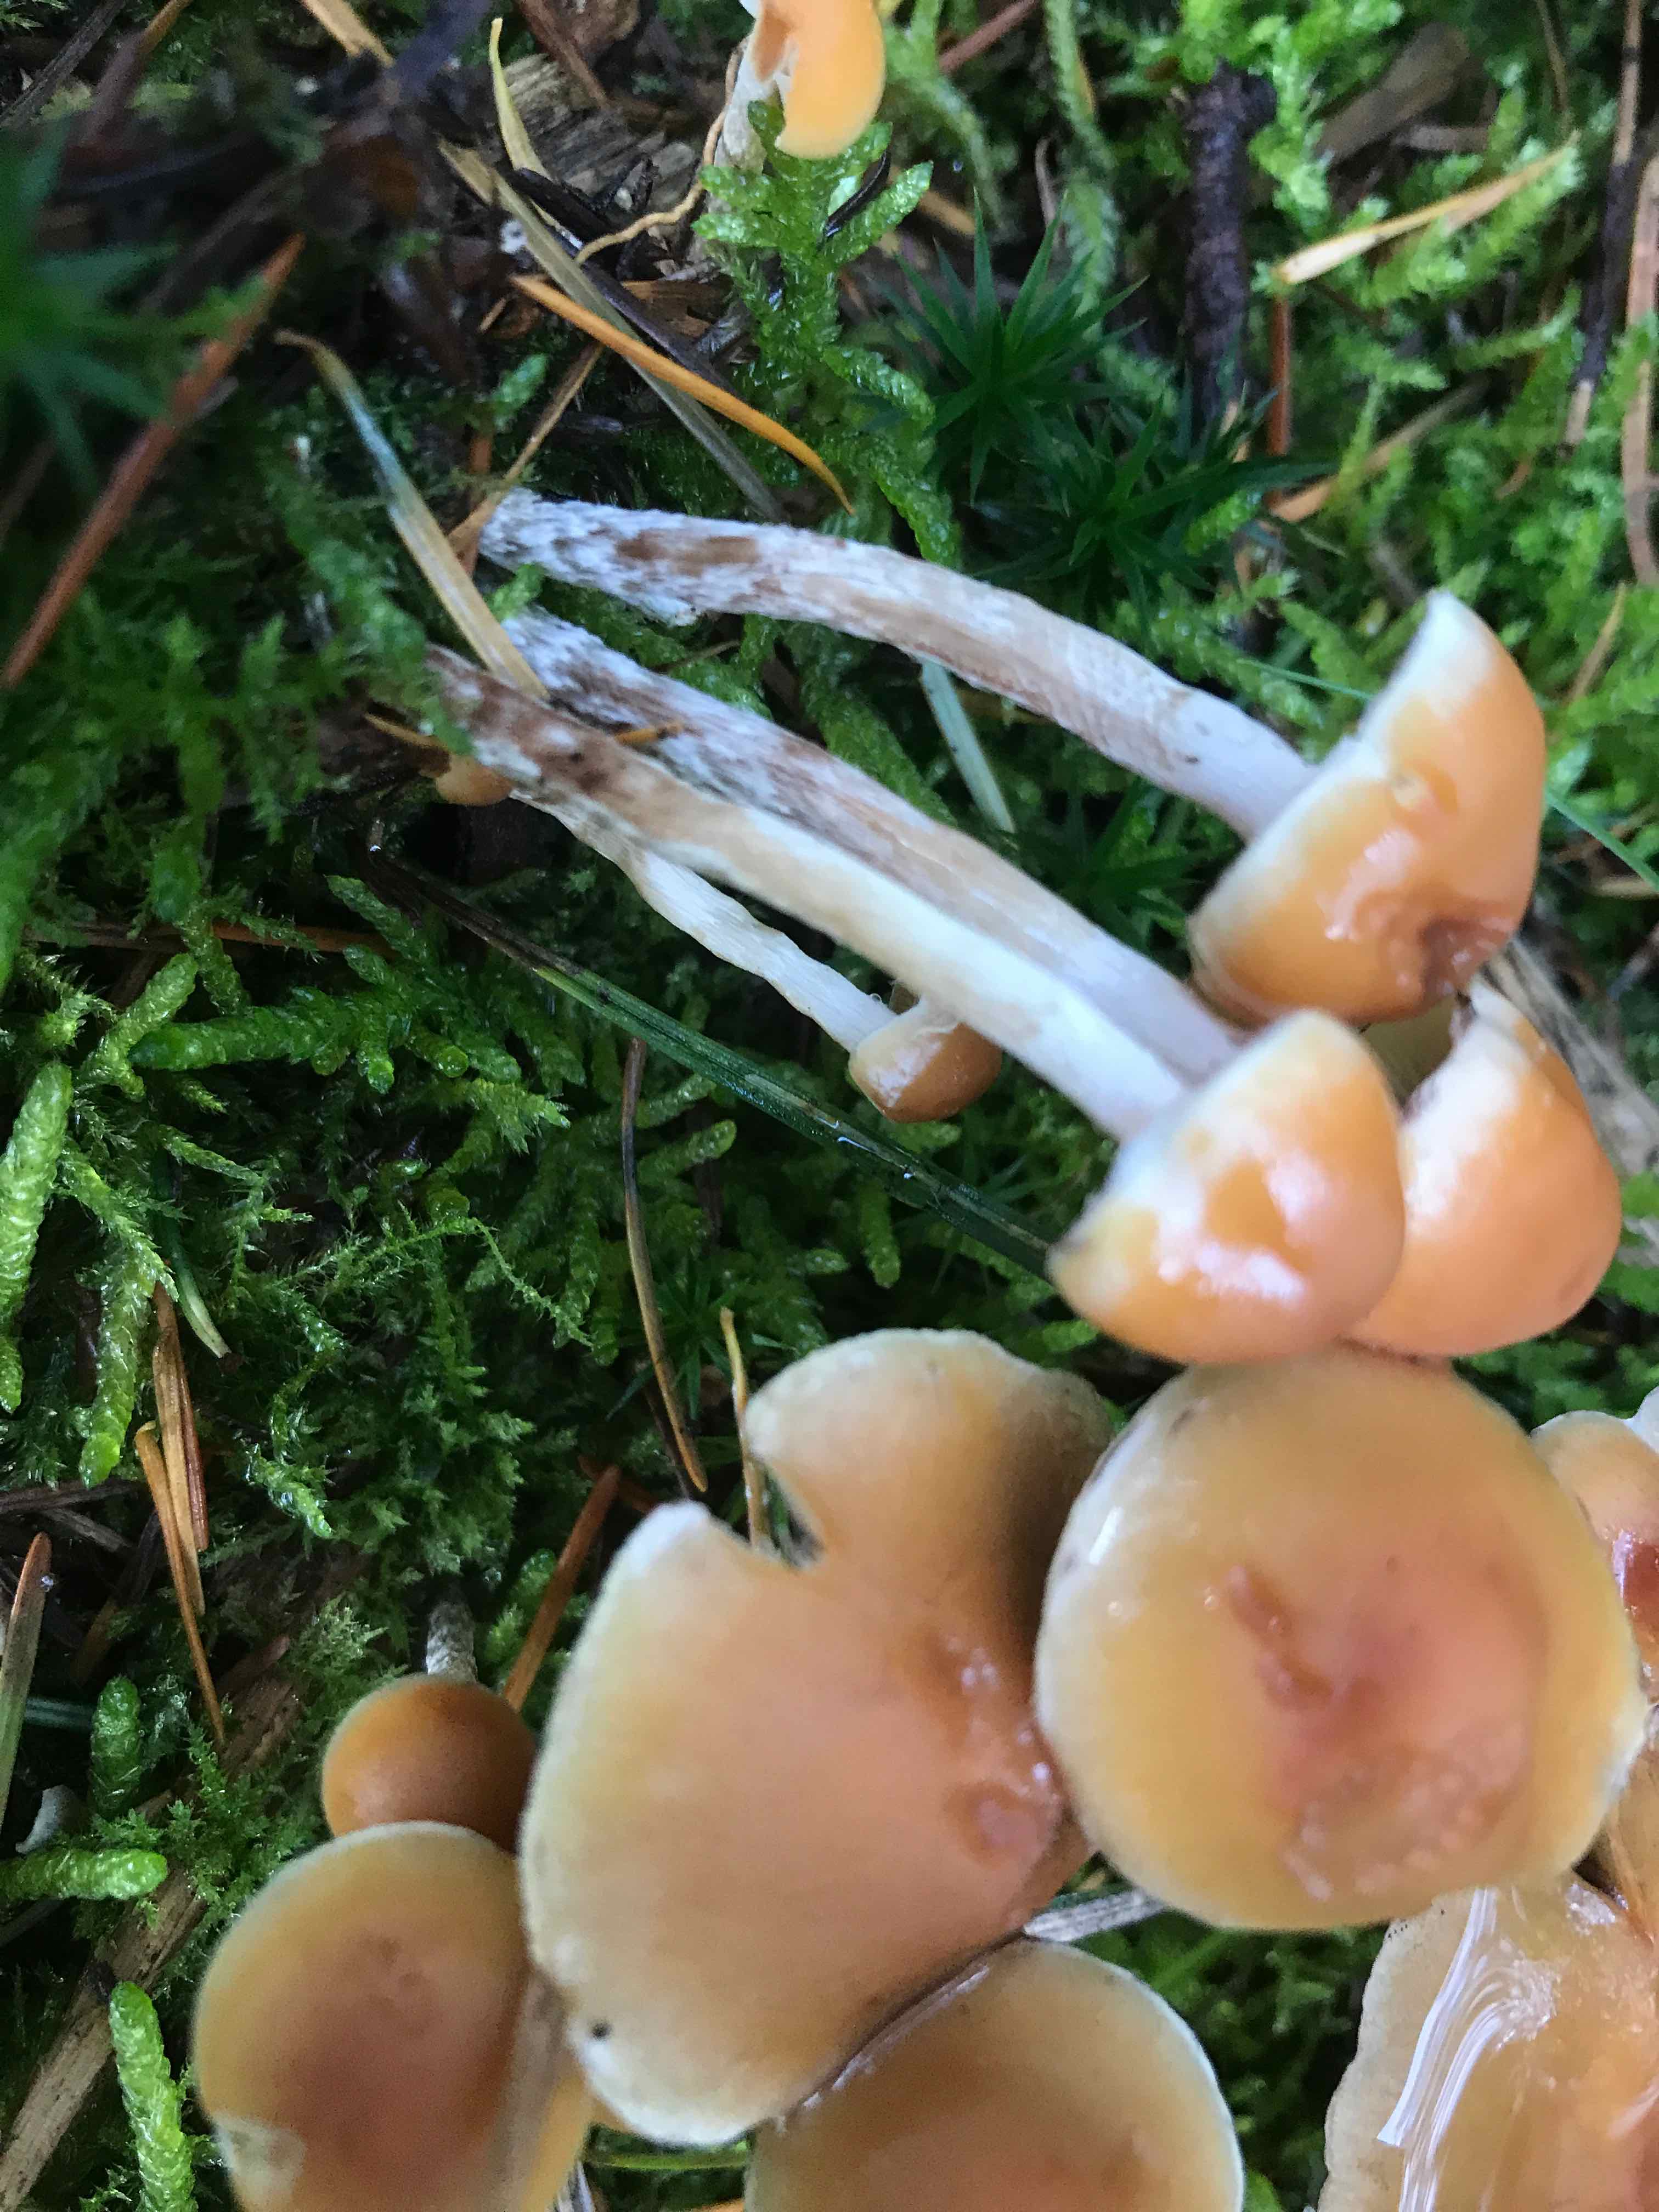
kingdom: Fungi
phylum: Basidiomycota
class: Agaricomycetes
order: Agaricales
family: Strophariaceae
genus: Hypholoma
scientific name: Hypholoma marginatum
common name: enlig svovlhat
